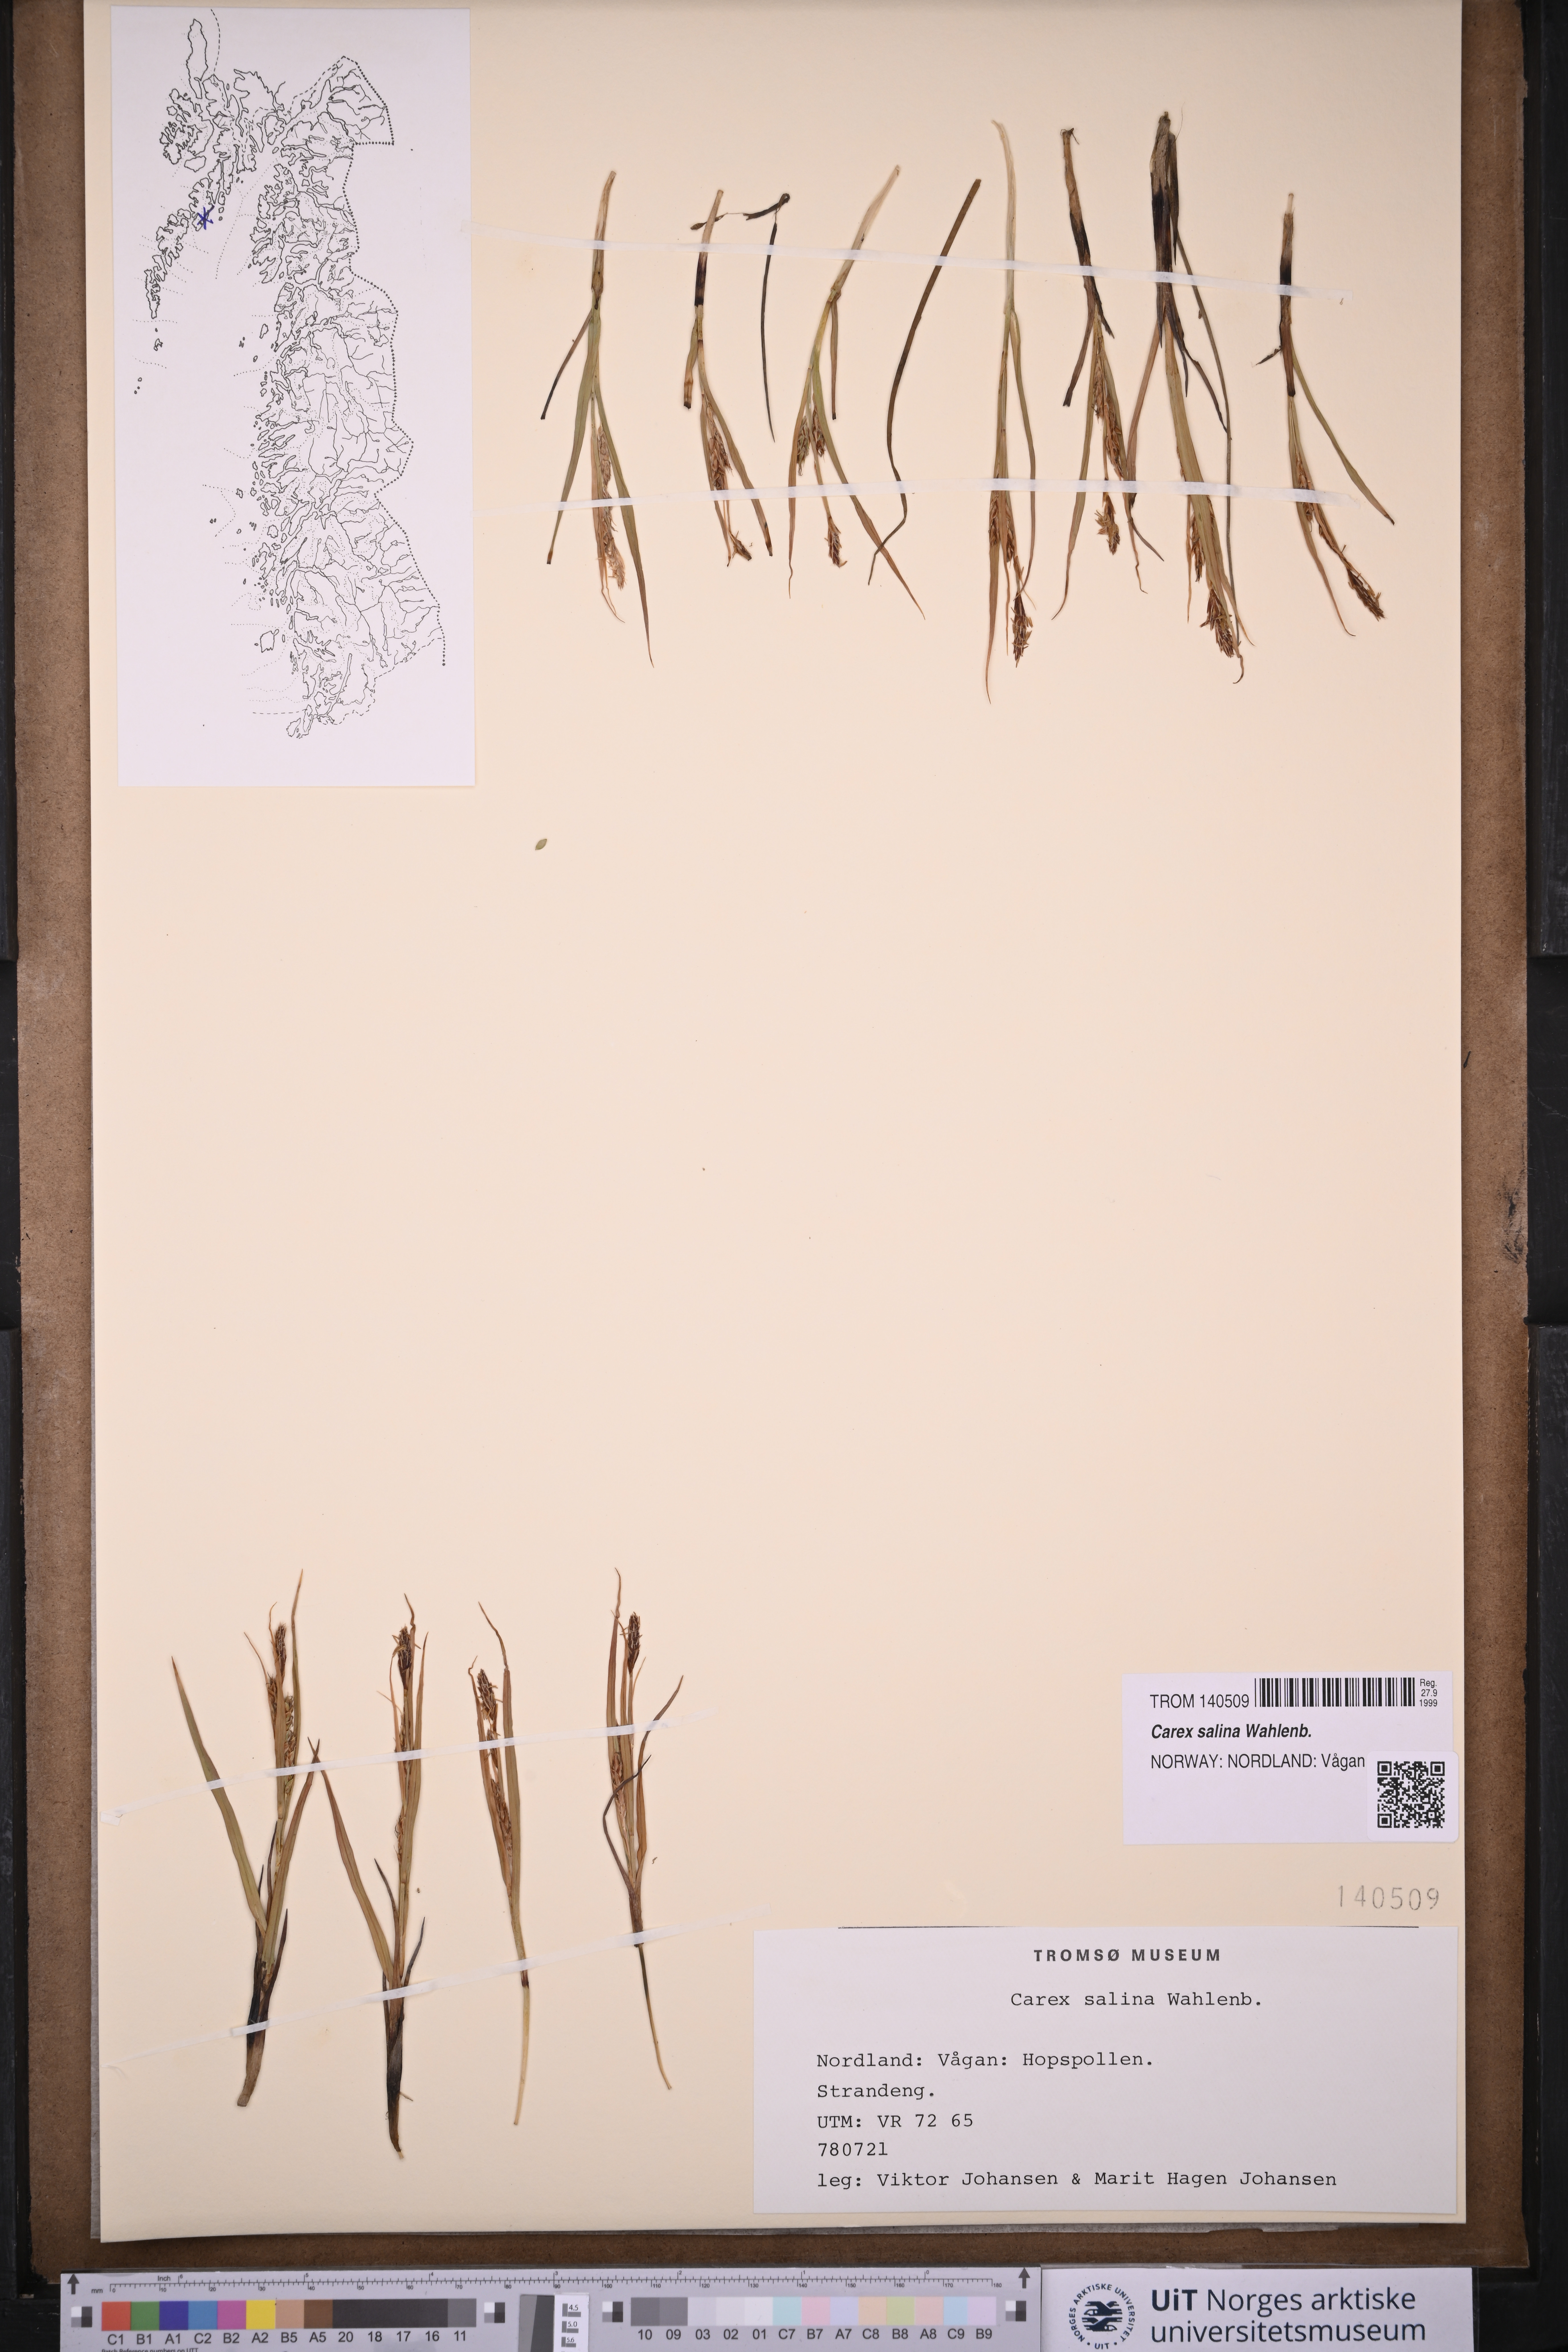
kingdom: Plantae
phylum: Tracheophyta
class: Liliopsida
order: Poales
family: Cyperaceae
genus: Carex
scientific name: Carex salina
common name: Saltmarsh sedge
